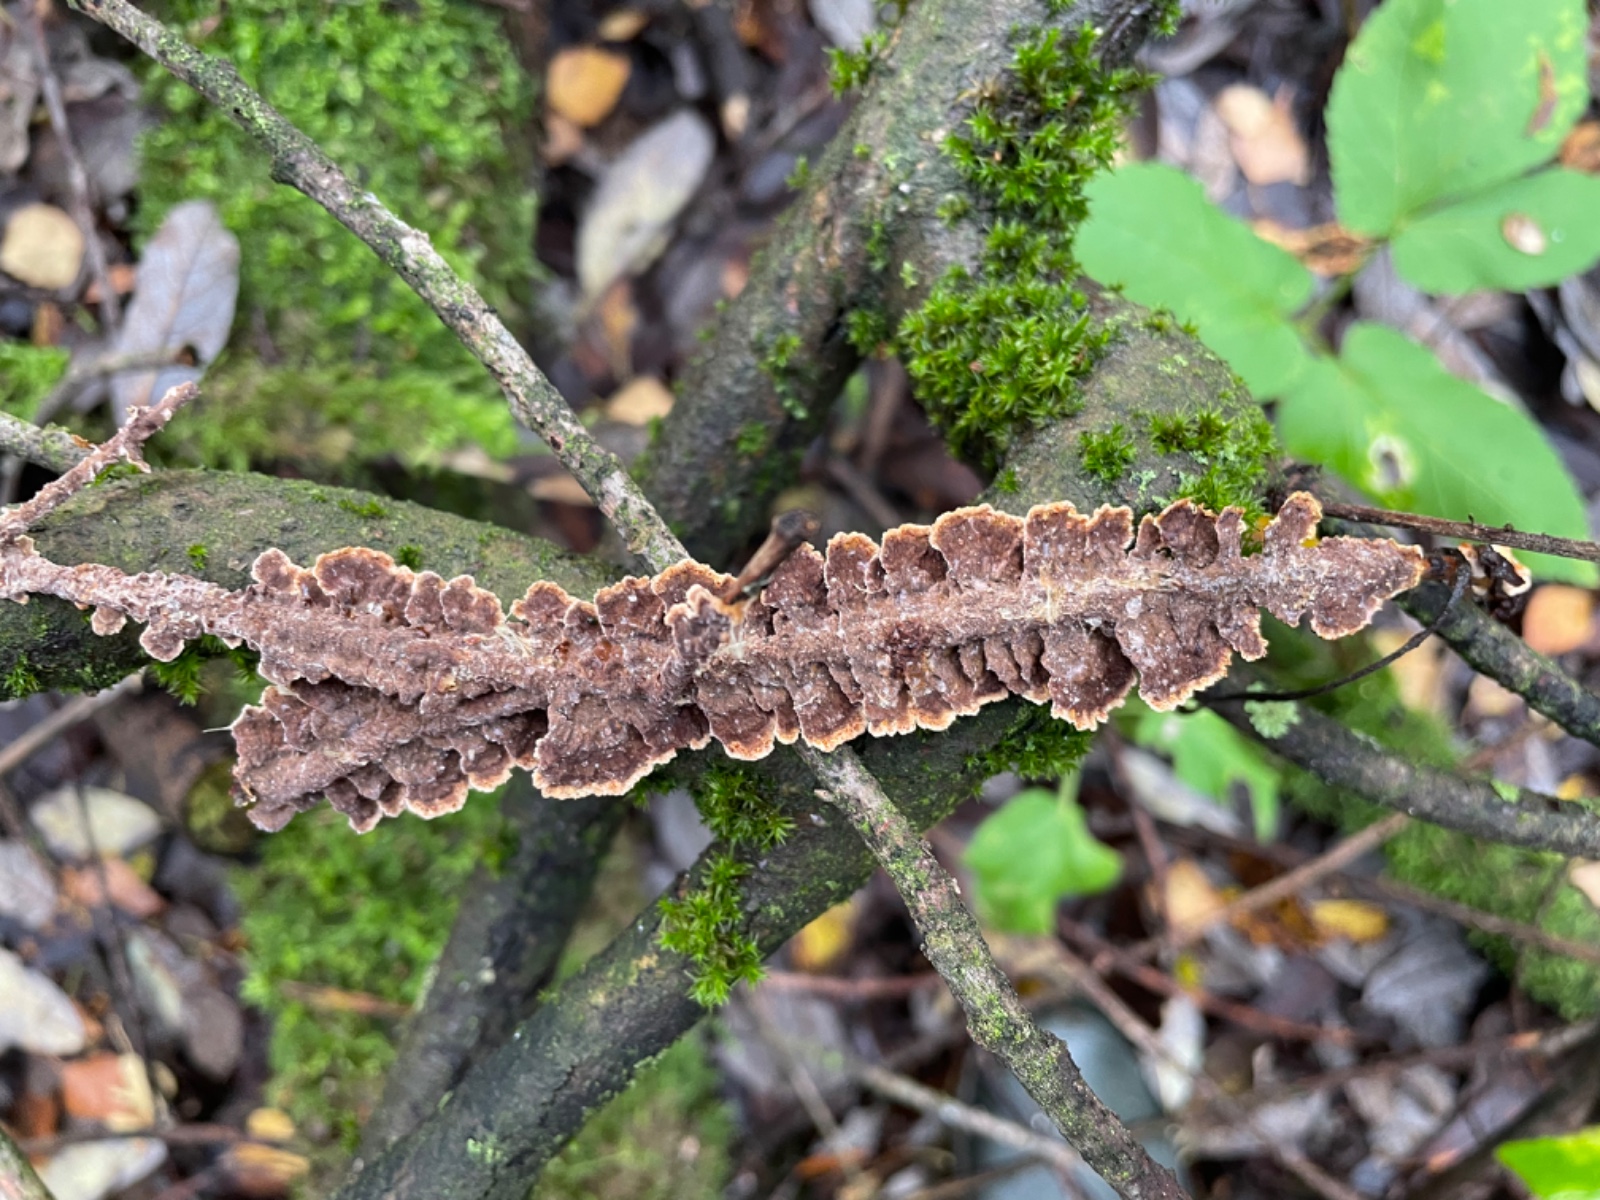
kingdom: Fungi
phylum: Basidiomycota
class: Agaricomycetes
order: Hymenochaetales
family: Hymenochaetaceae
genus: Hydnoporia
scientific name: Hydnoporia tabacina
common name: tobaksbrun ruslædersvamp
